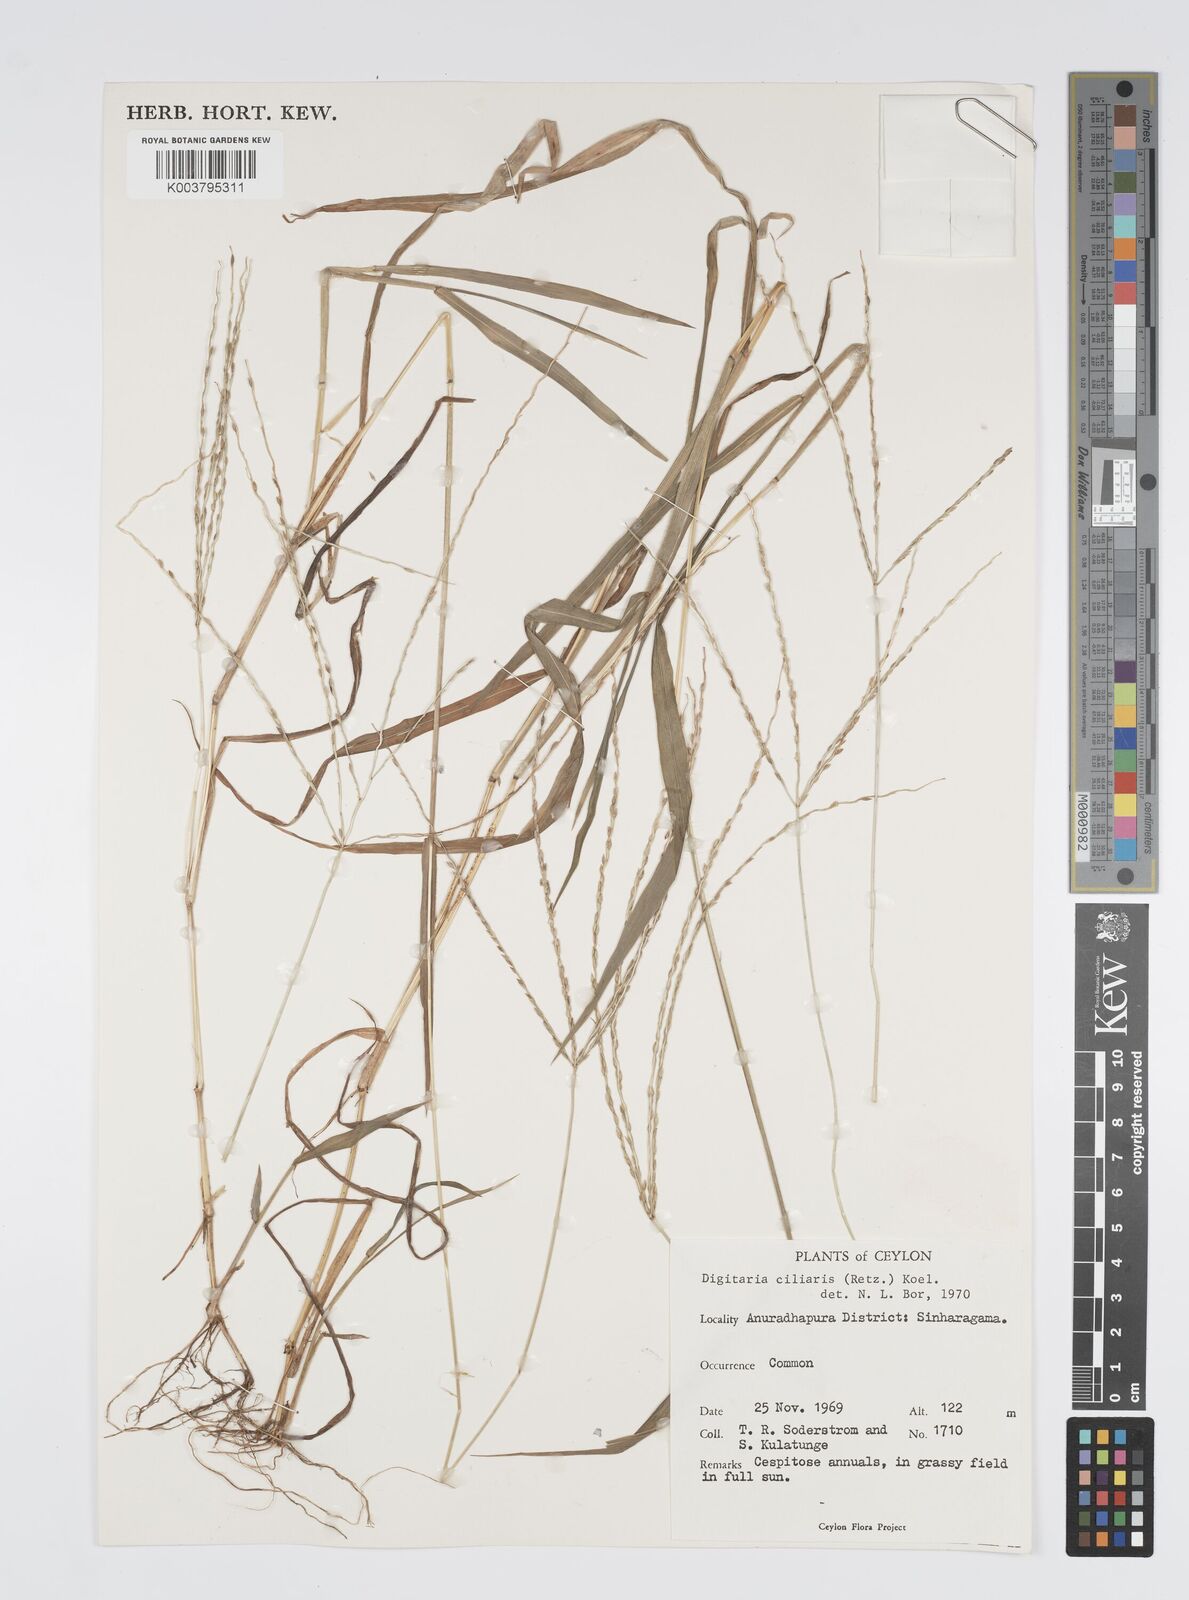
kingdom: Plantae
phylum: Tracheophyta
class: Liliopsida
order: Poales
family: Poaceae
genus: Digitaria
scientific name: Digitaria ciliaris
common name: Tropical finger-grass
